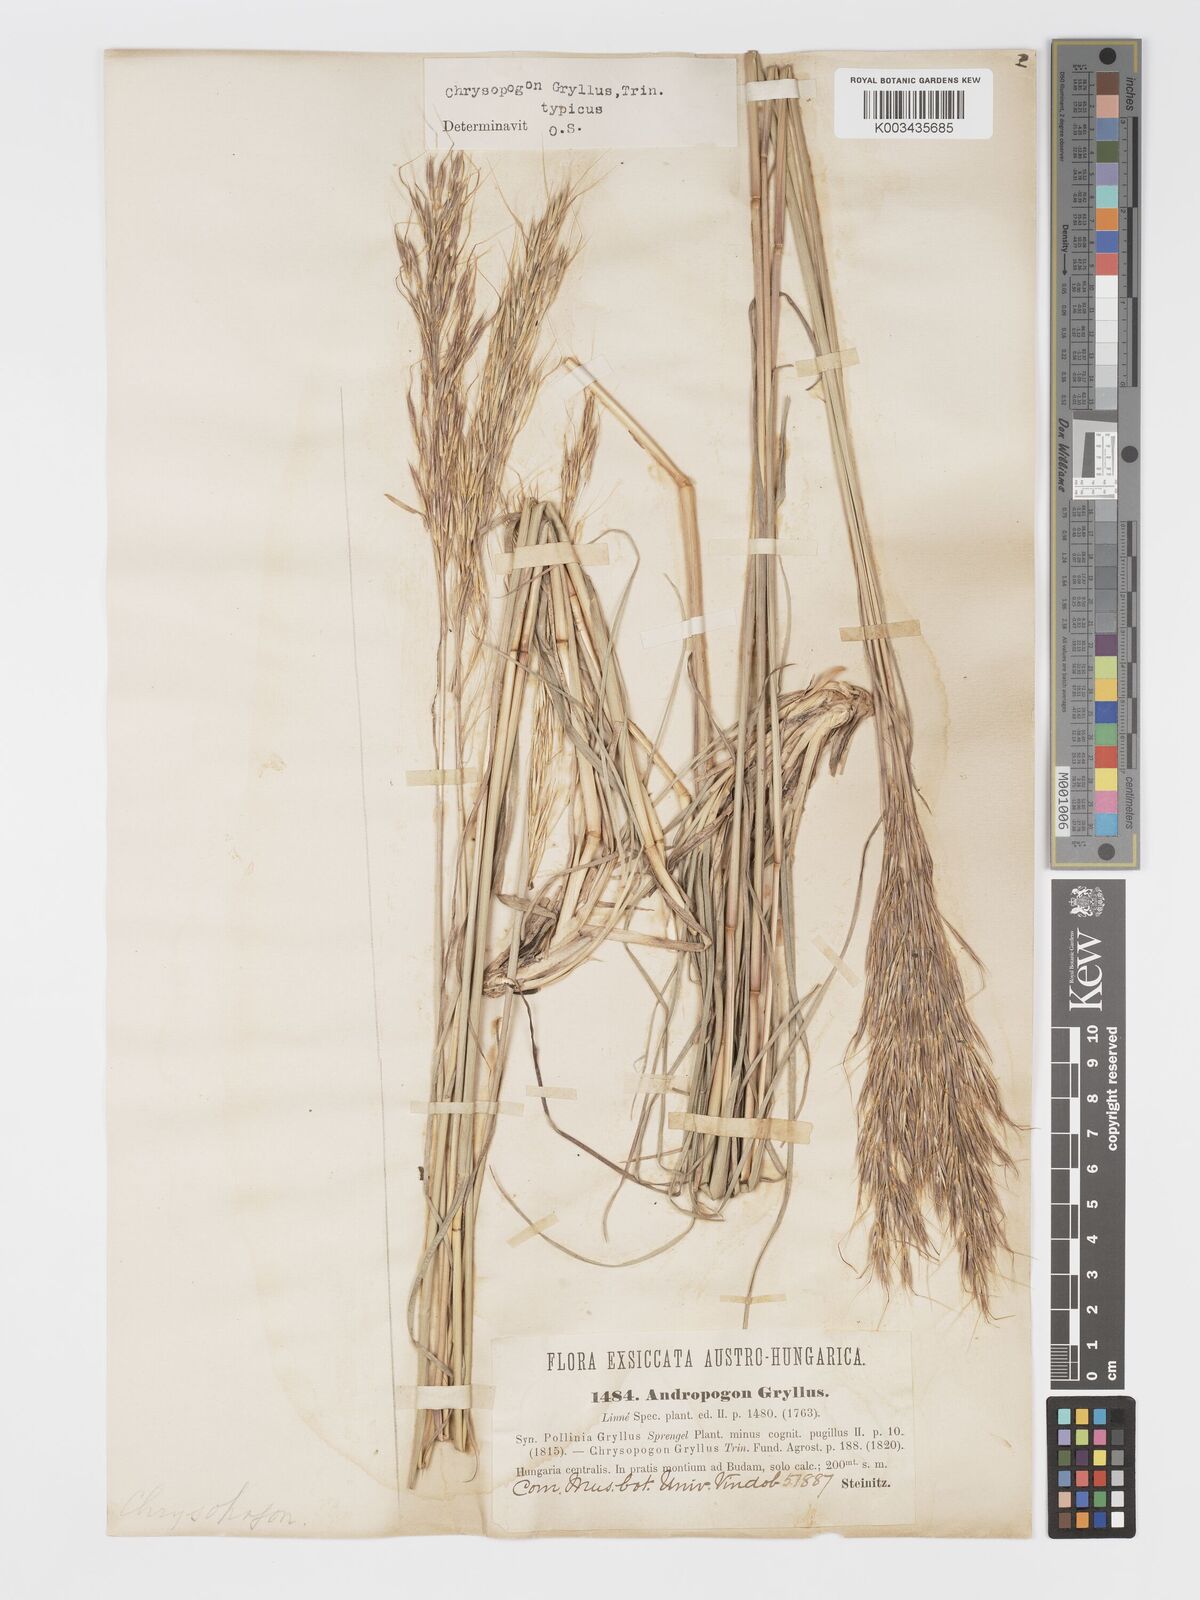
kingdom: Plantae
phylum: Tracheophyta
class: Liliopsida
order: Poales
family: Poaceae
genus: Chrysopogon
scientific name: Chrysopogon gryllus
